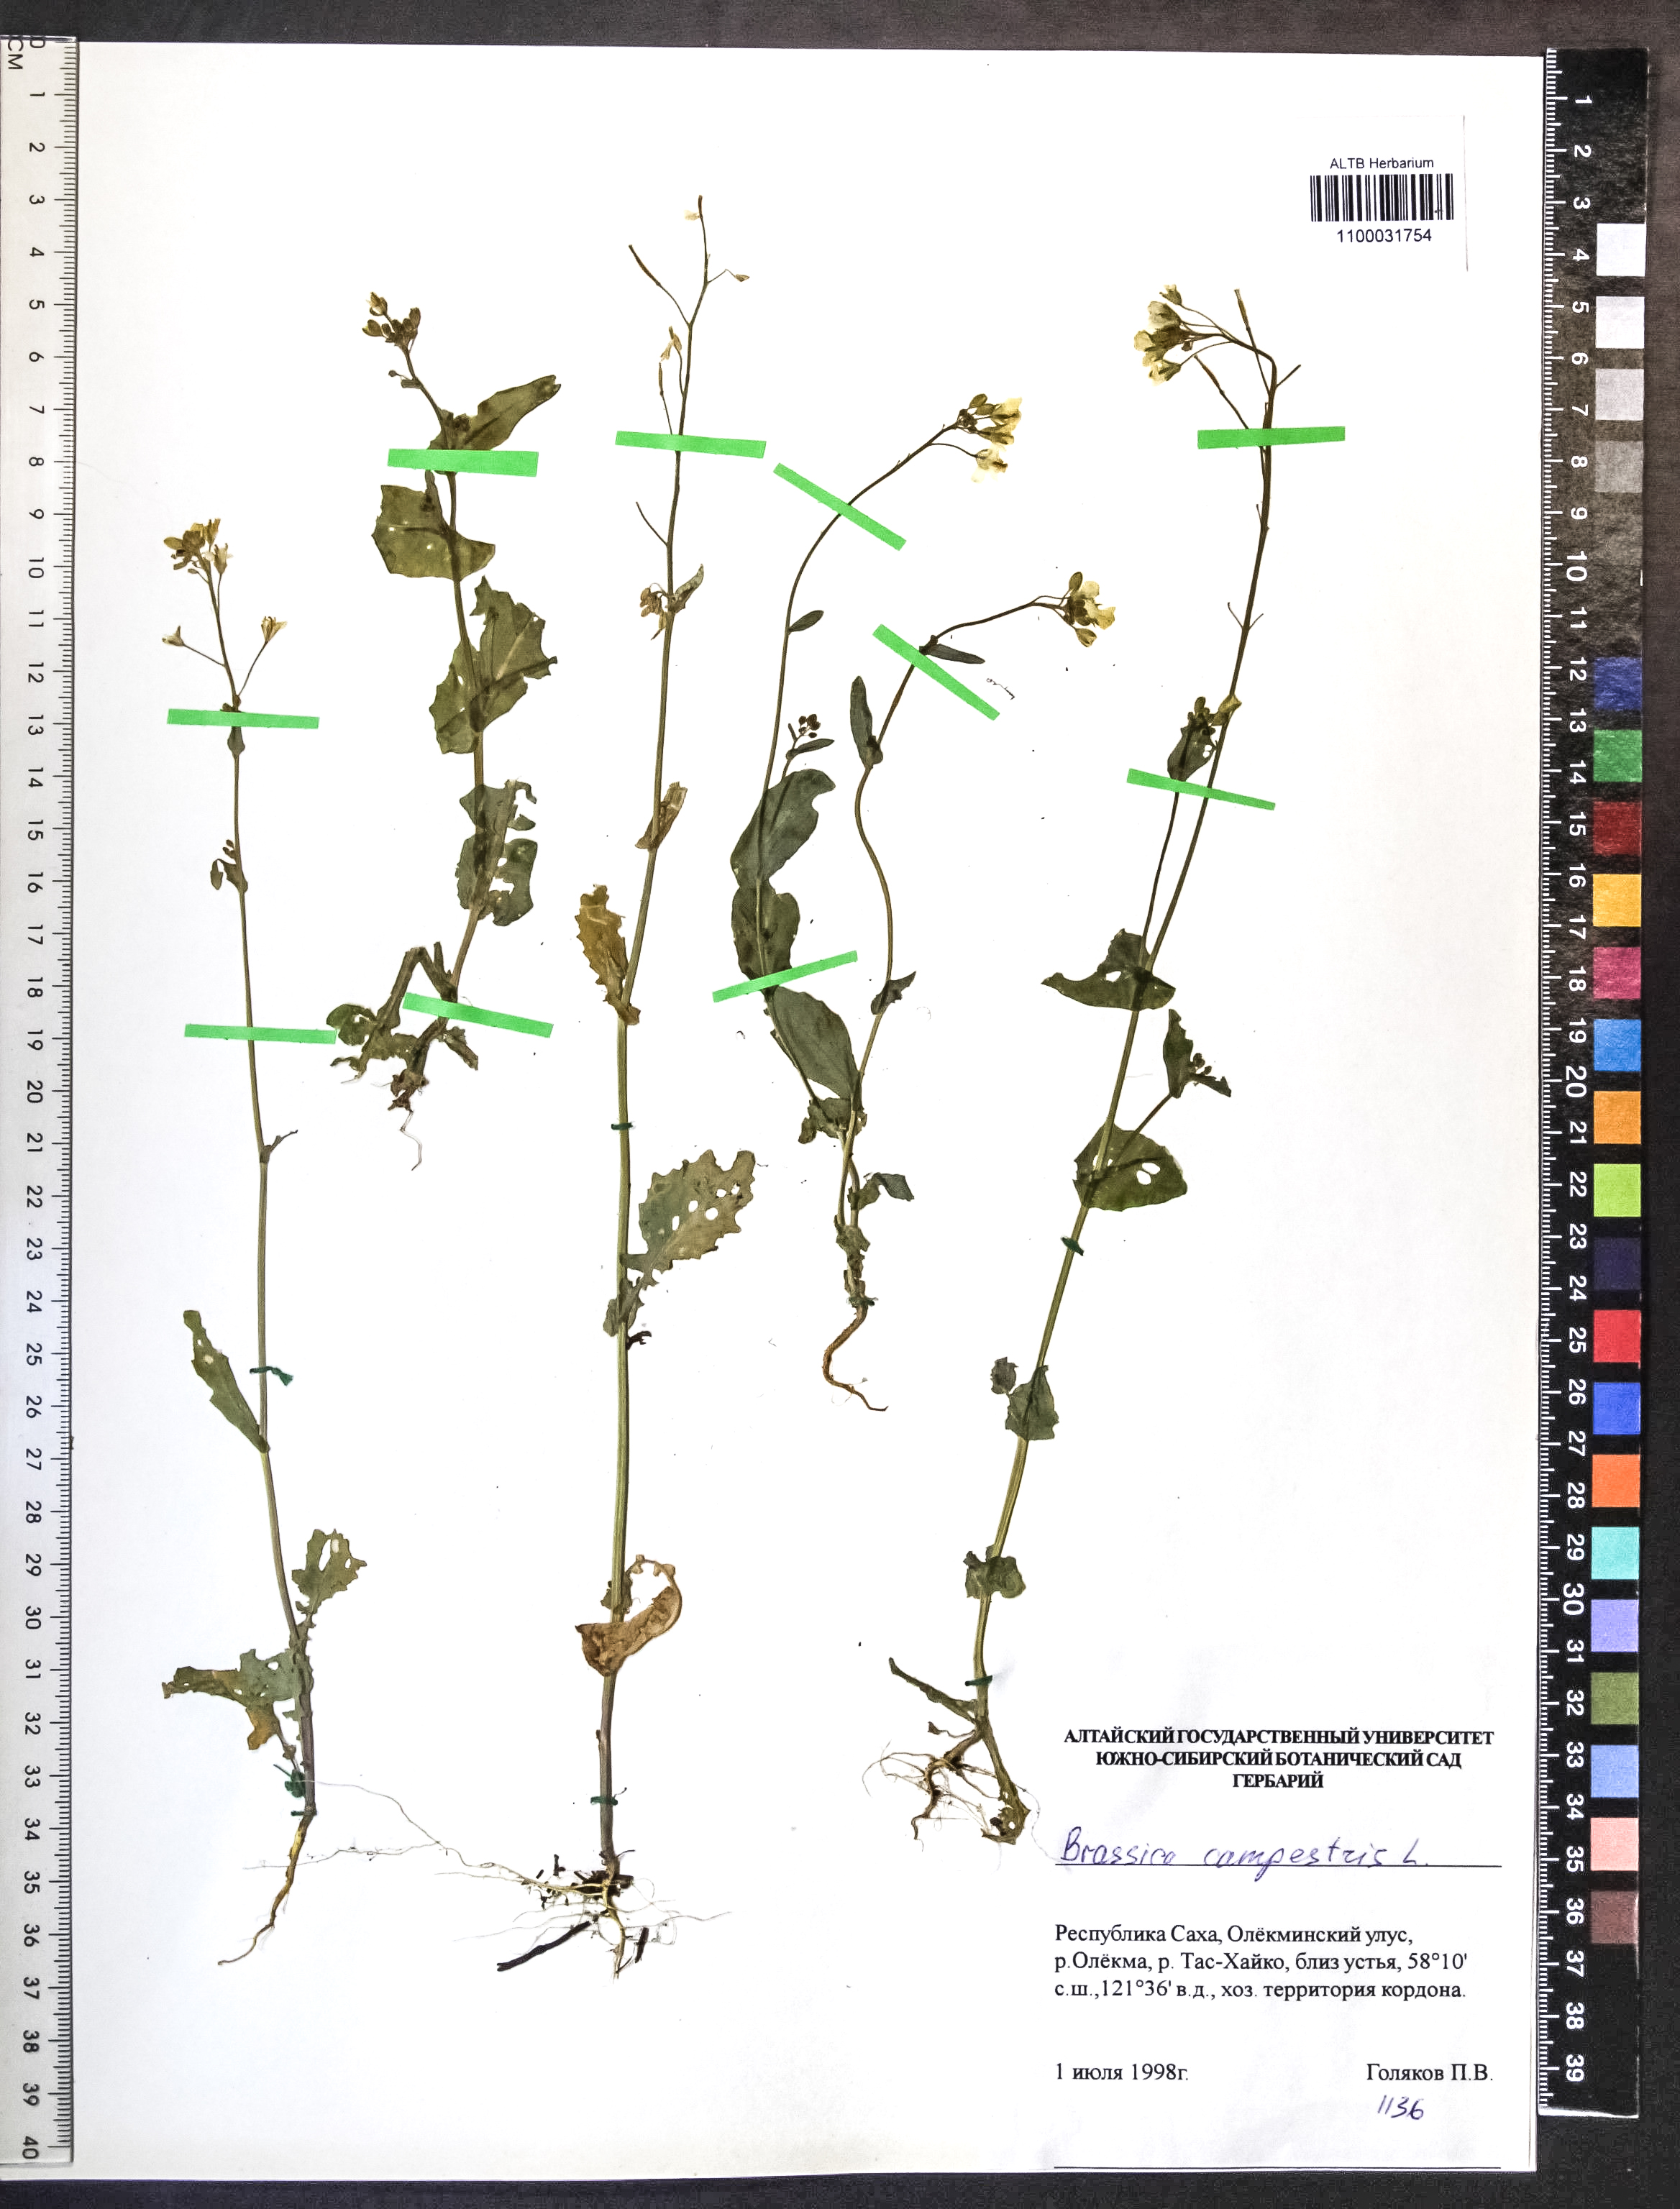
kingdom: Plantae
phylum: Tracheophyta
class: Magnoliopsida
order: Brassicales
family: Brassicaceae
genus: Brassica
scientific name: Brassica rapa
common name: Field mustard
